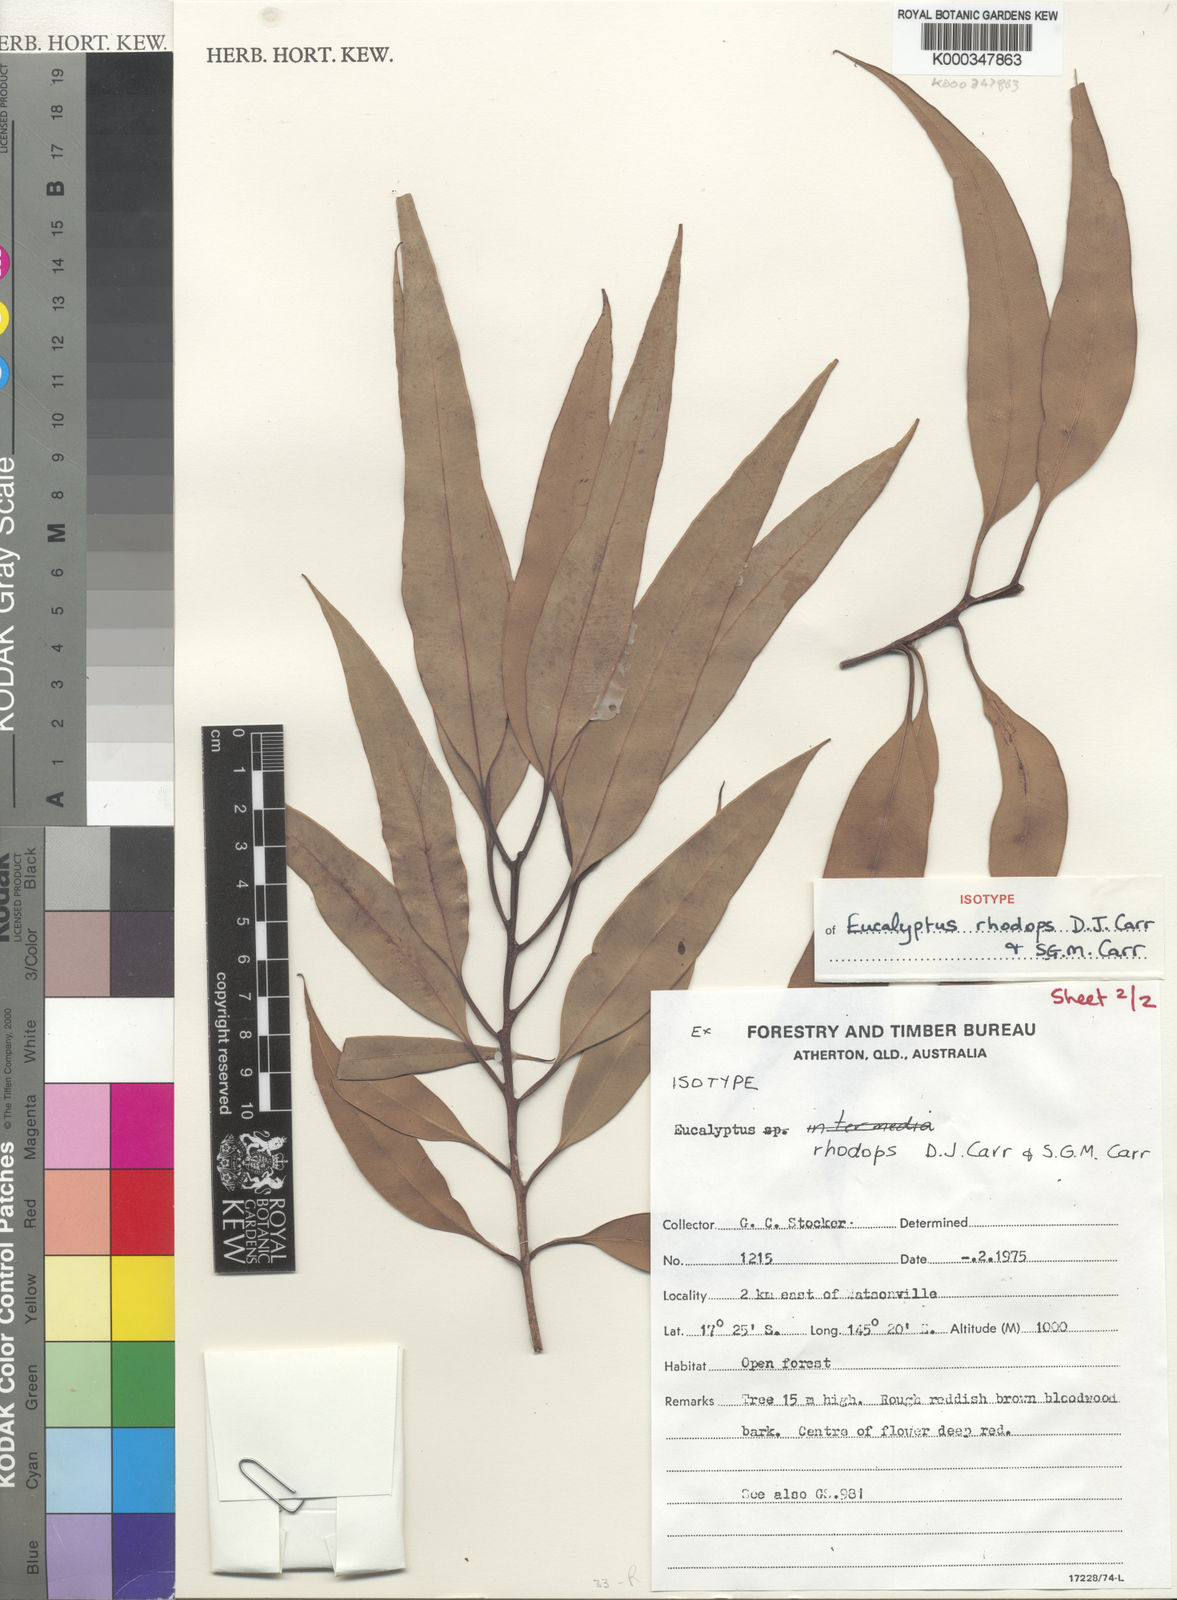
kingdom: Plantae
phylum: Tracheophyta
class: Magnoliopsida
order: Myrtales
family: Myrtaceae
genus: Corymbia
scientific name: Corymbia rhodops
